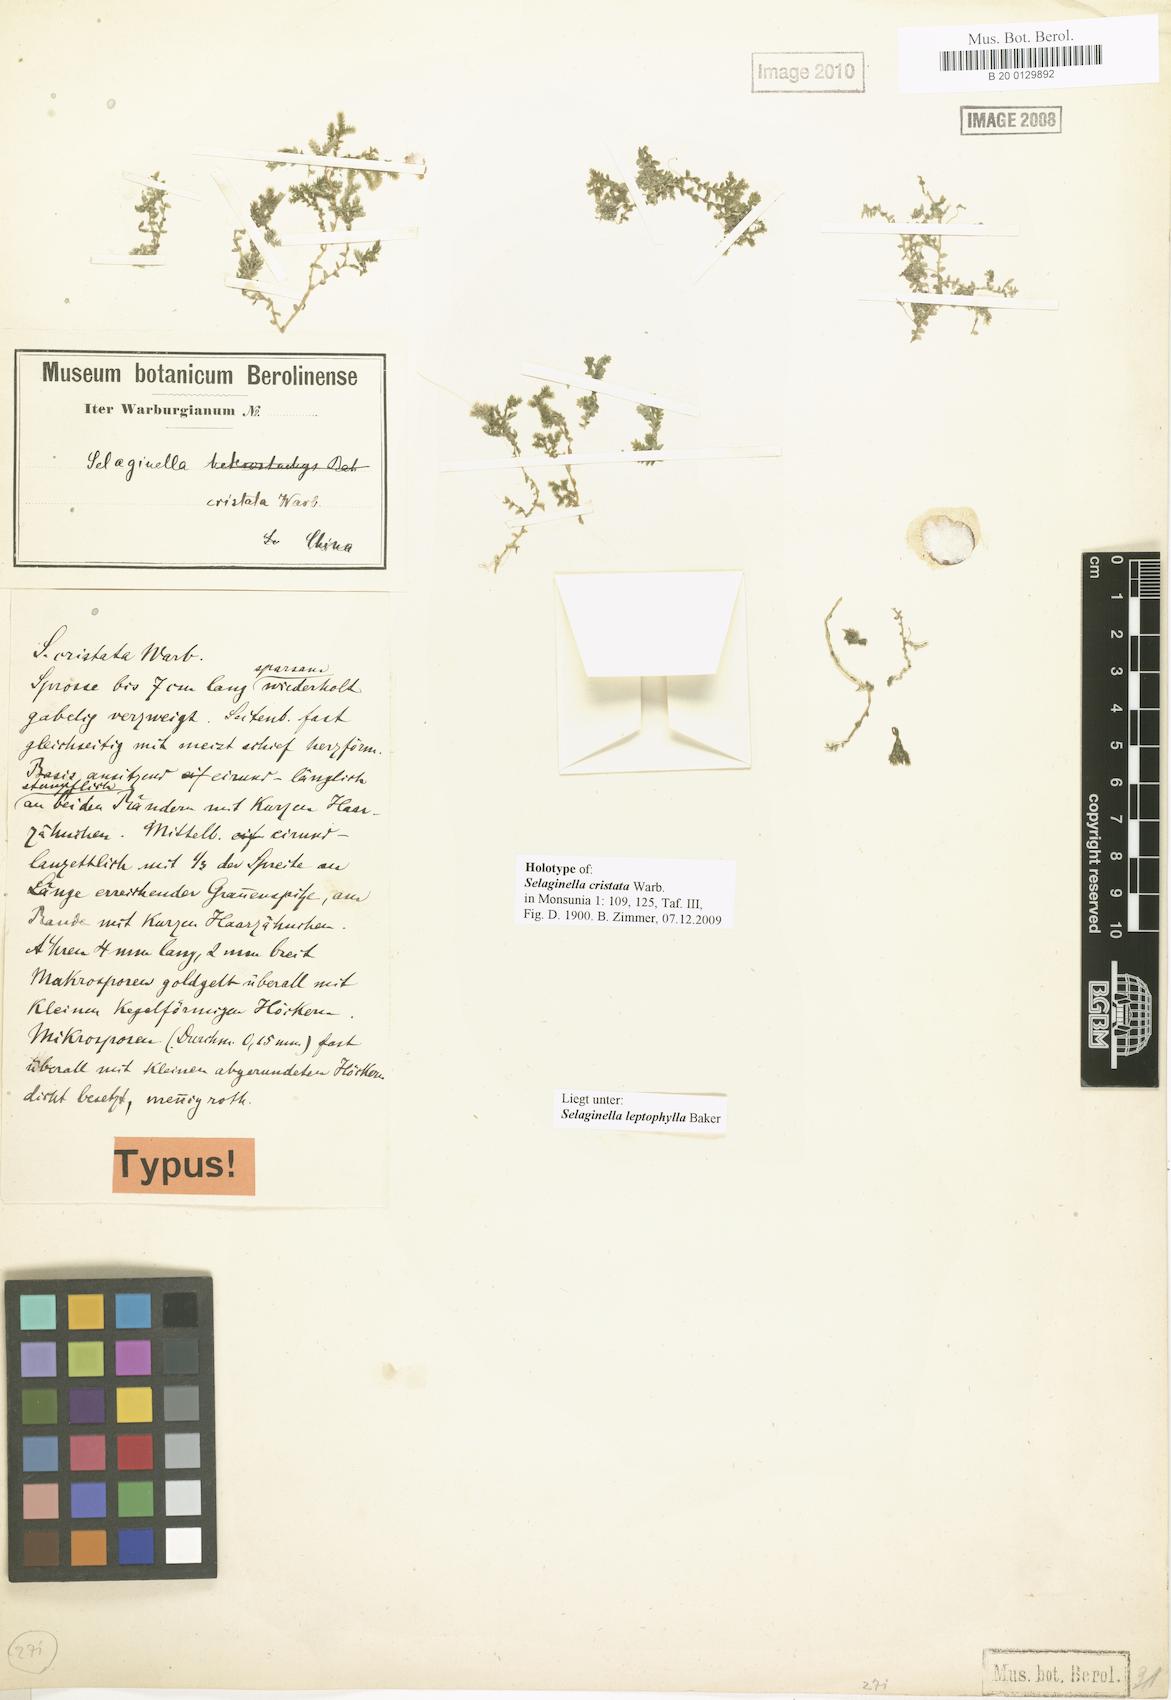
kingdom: Plantae
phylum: Tracheophyta
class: Lycopodiopsida
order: Selaginellales
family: Selaginellaceae
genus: Selaginella
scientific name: Selaginella leptophylla
